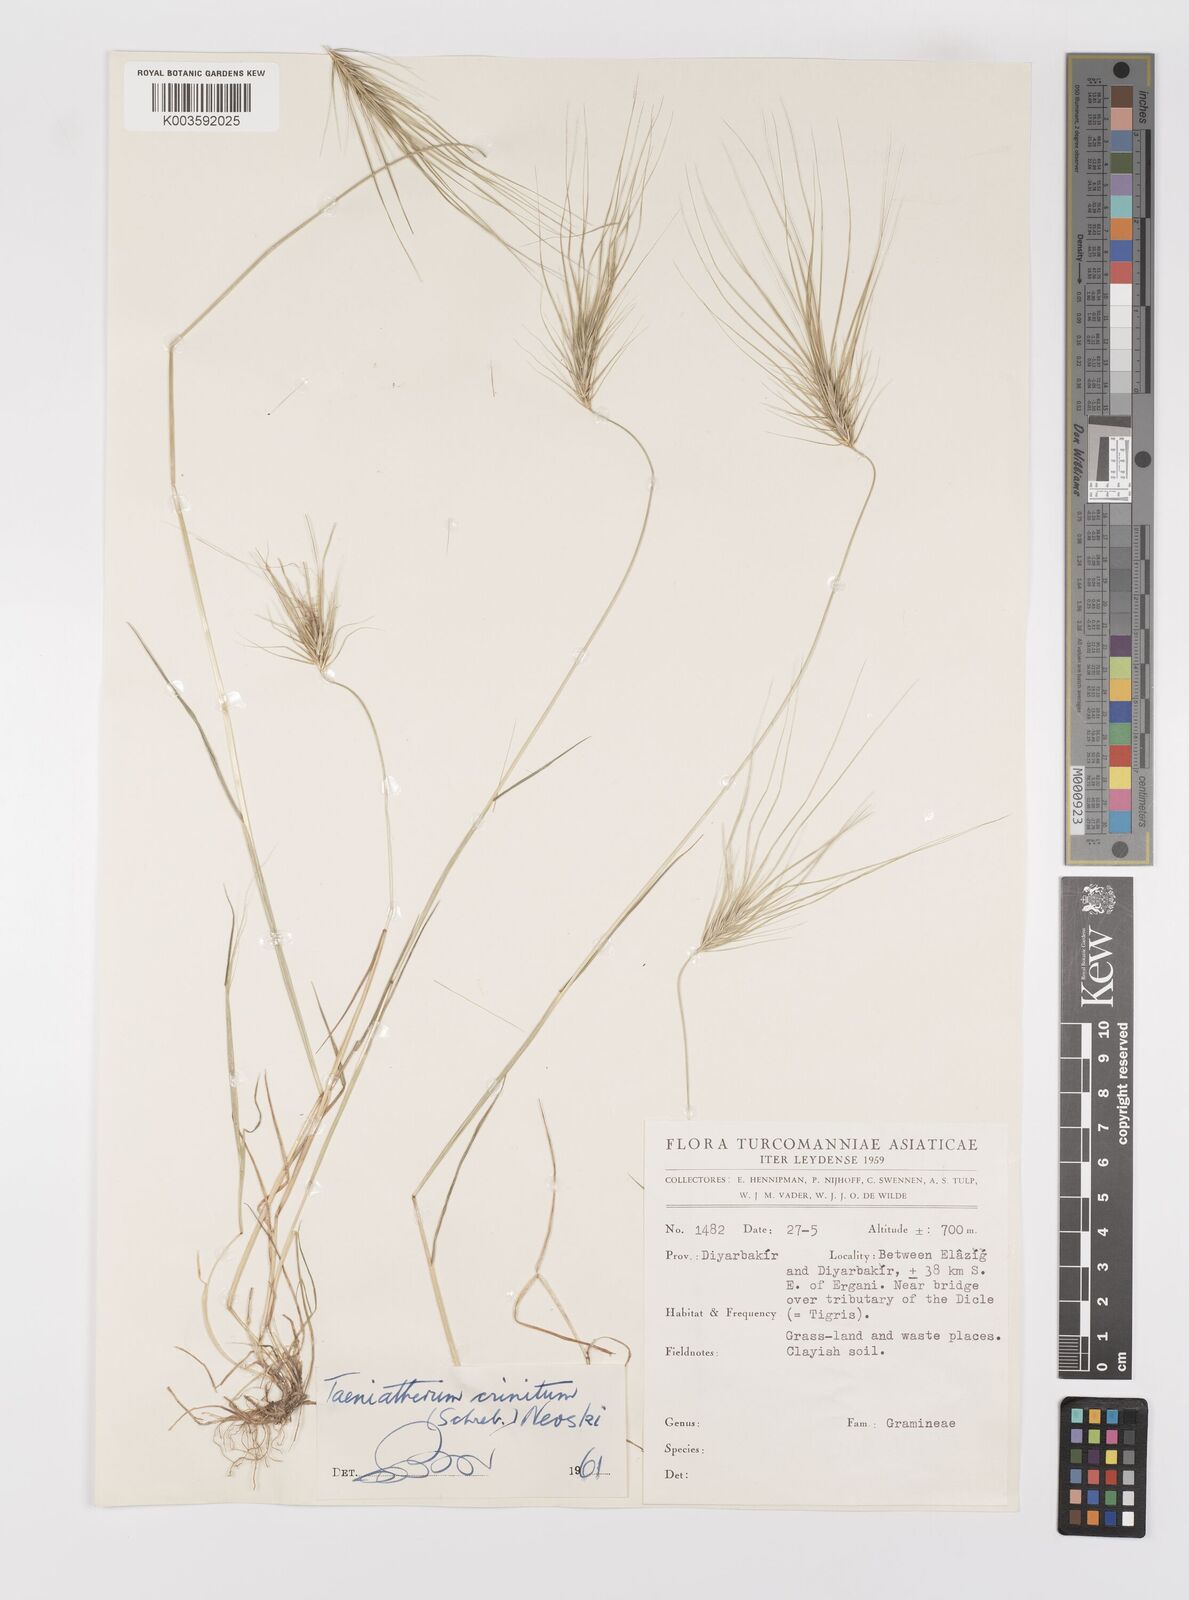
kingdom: Plantae
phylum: Tracheophyta
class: Liliopsida
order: Poales
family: Poaceae
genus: Taeniatherum
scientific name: Taeniatherum caput-medusae
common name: Medusahead
